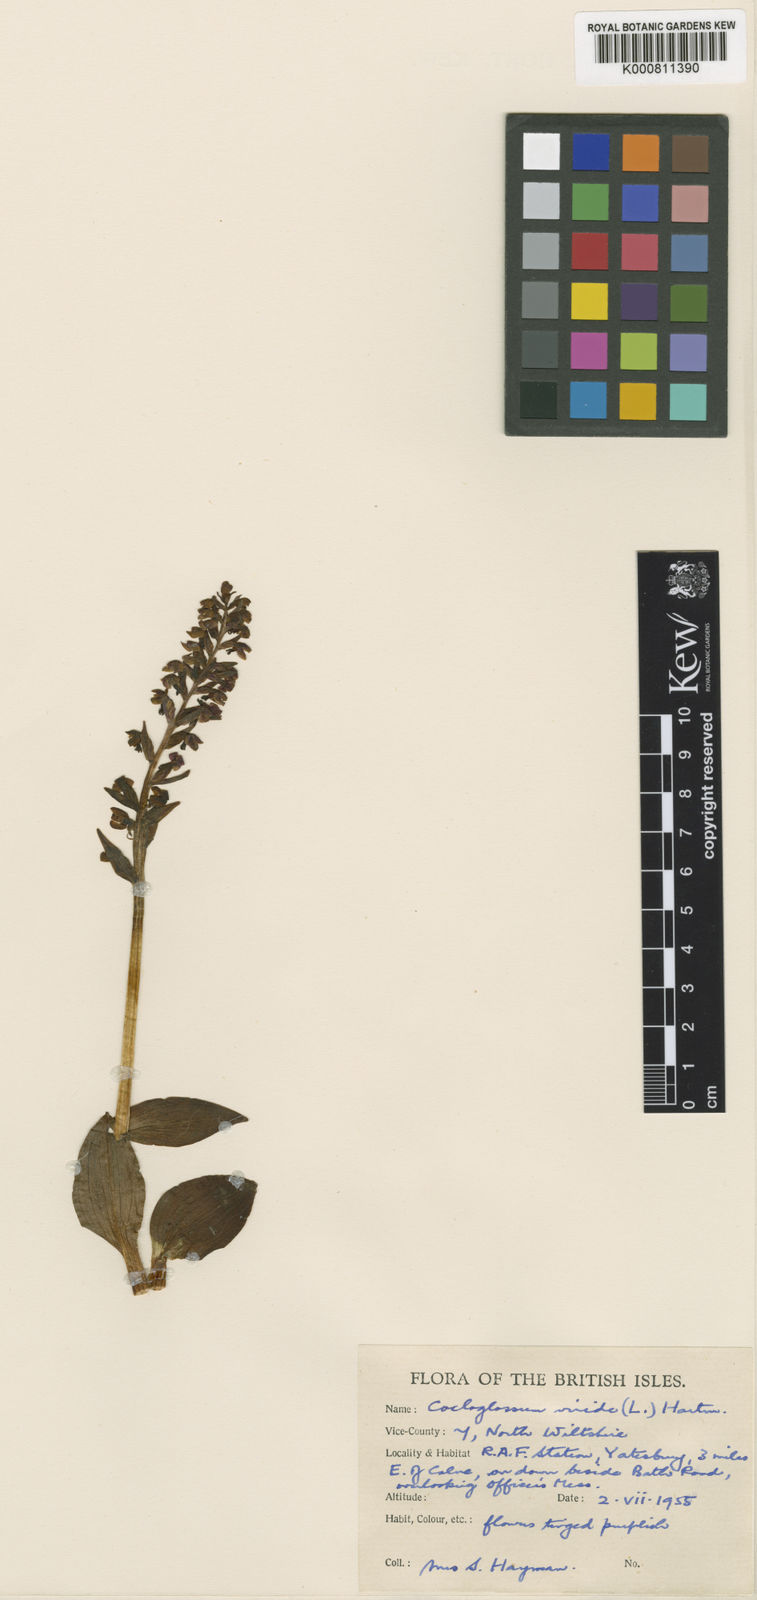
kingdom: Plantae
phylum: Tracheophyta
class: Liliopsida
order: Asparagales
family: Orchidaceae
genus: Dactylorhiza
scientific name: Dactylorhiza viridis
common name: Longbract frog orchid
